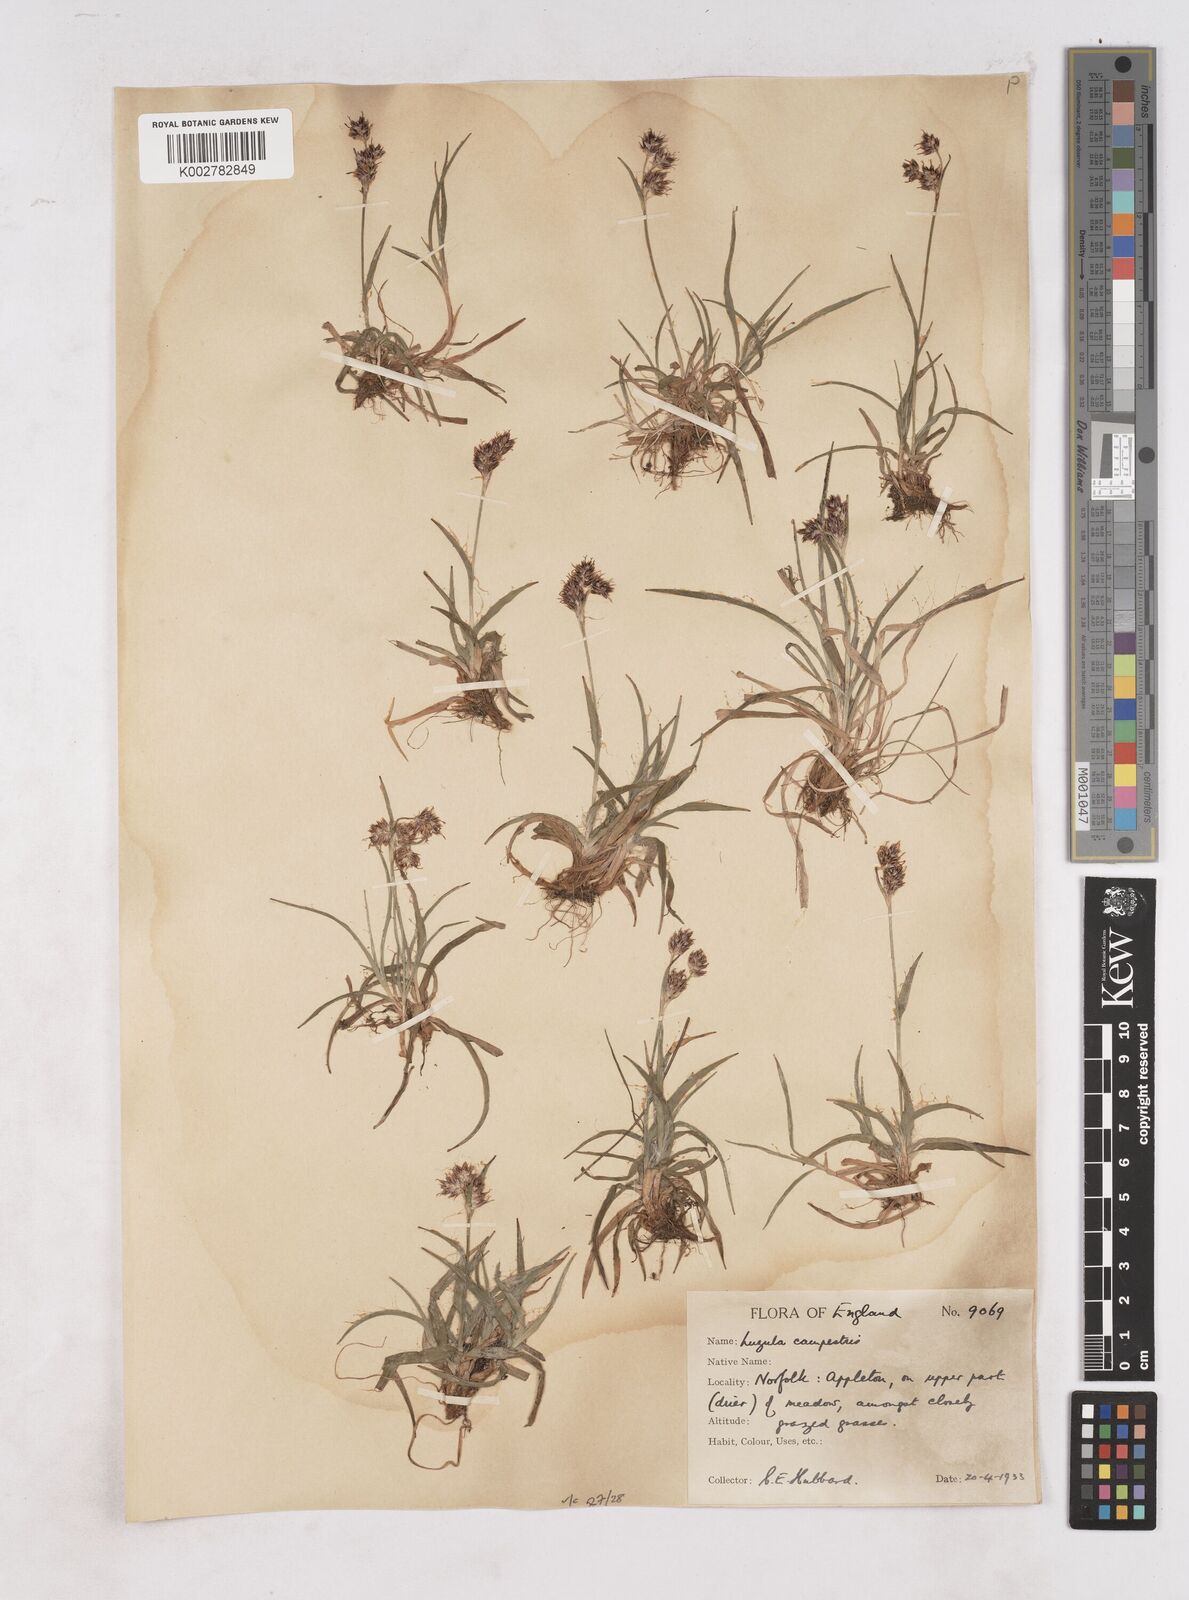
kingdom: Plantae
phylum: Tracheophyta
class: Liliopsida
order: Poales
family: Juncaceae
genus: Luzula
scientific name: Luzula campestris
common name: Field wood-rush
